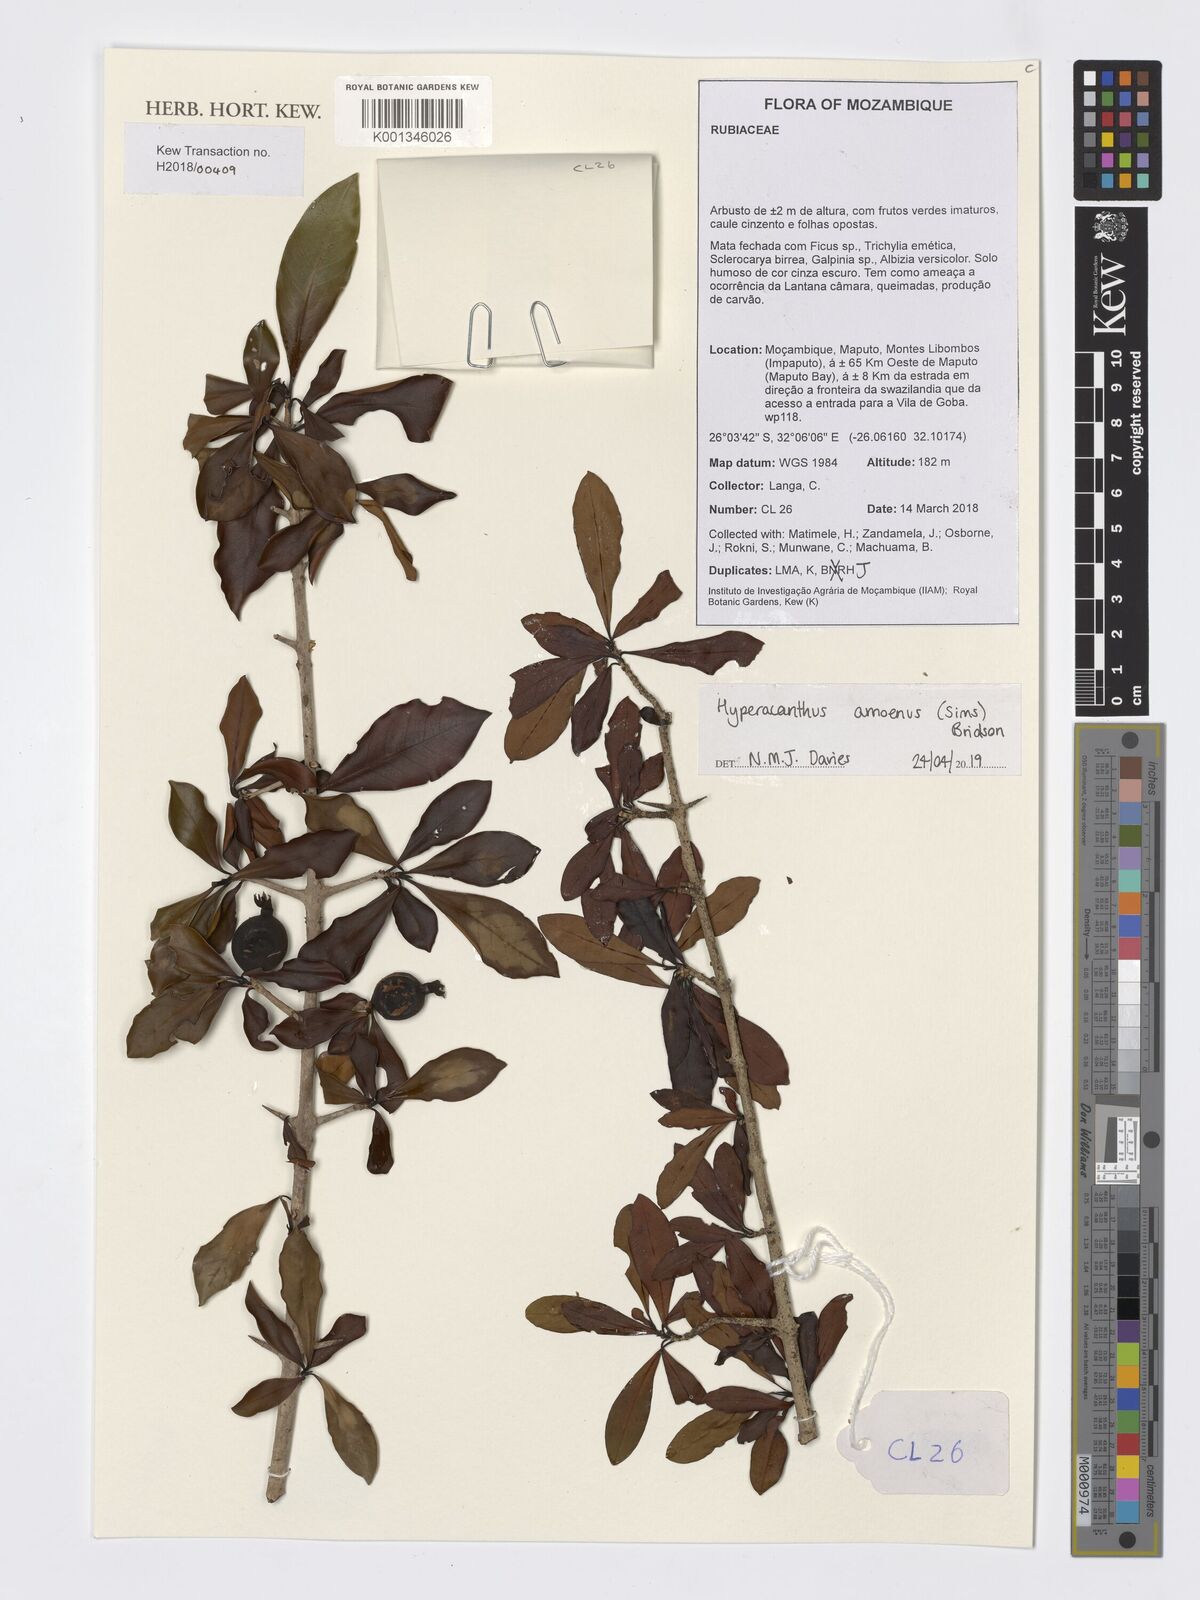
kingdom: Plantae
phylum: Tracheophyta
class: Magnoliopsida
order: Gentianales
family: Rubiaceae
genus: Hyperacanthus
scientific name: Hyperacanthus amoenus
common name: Spiny gardenia
